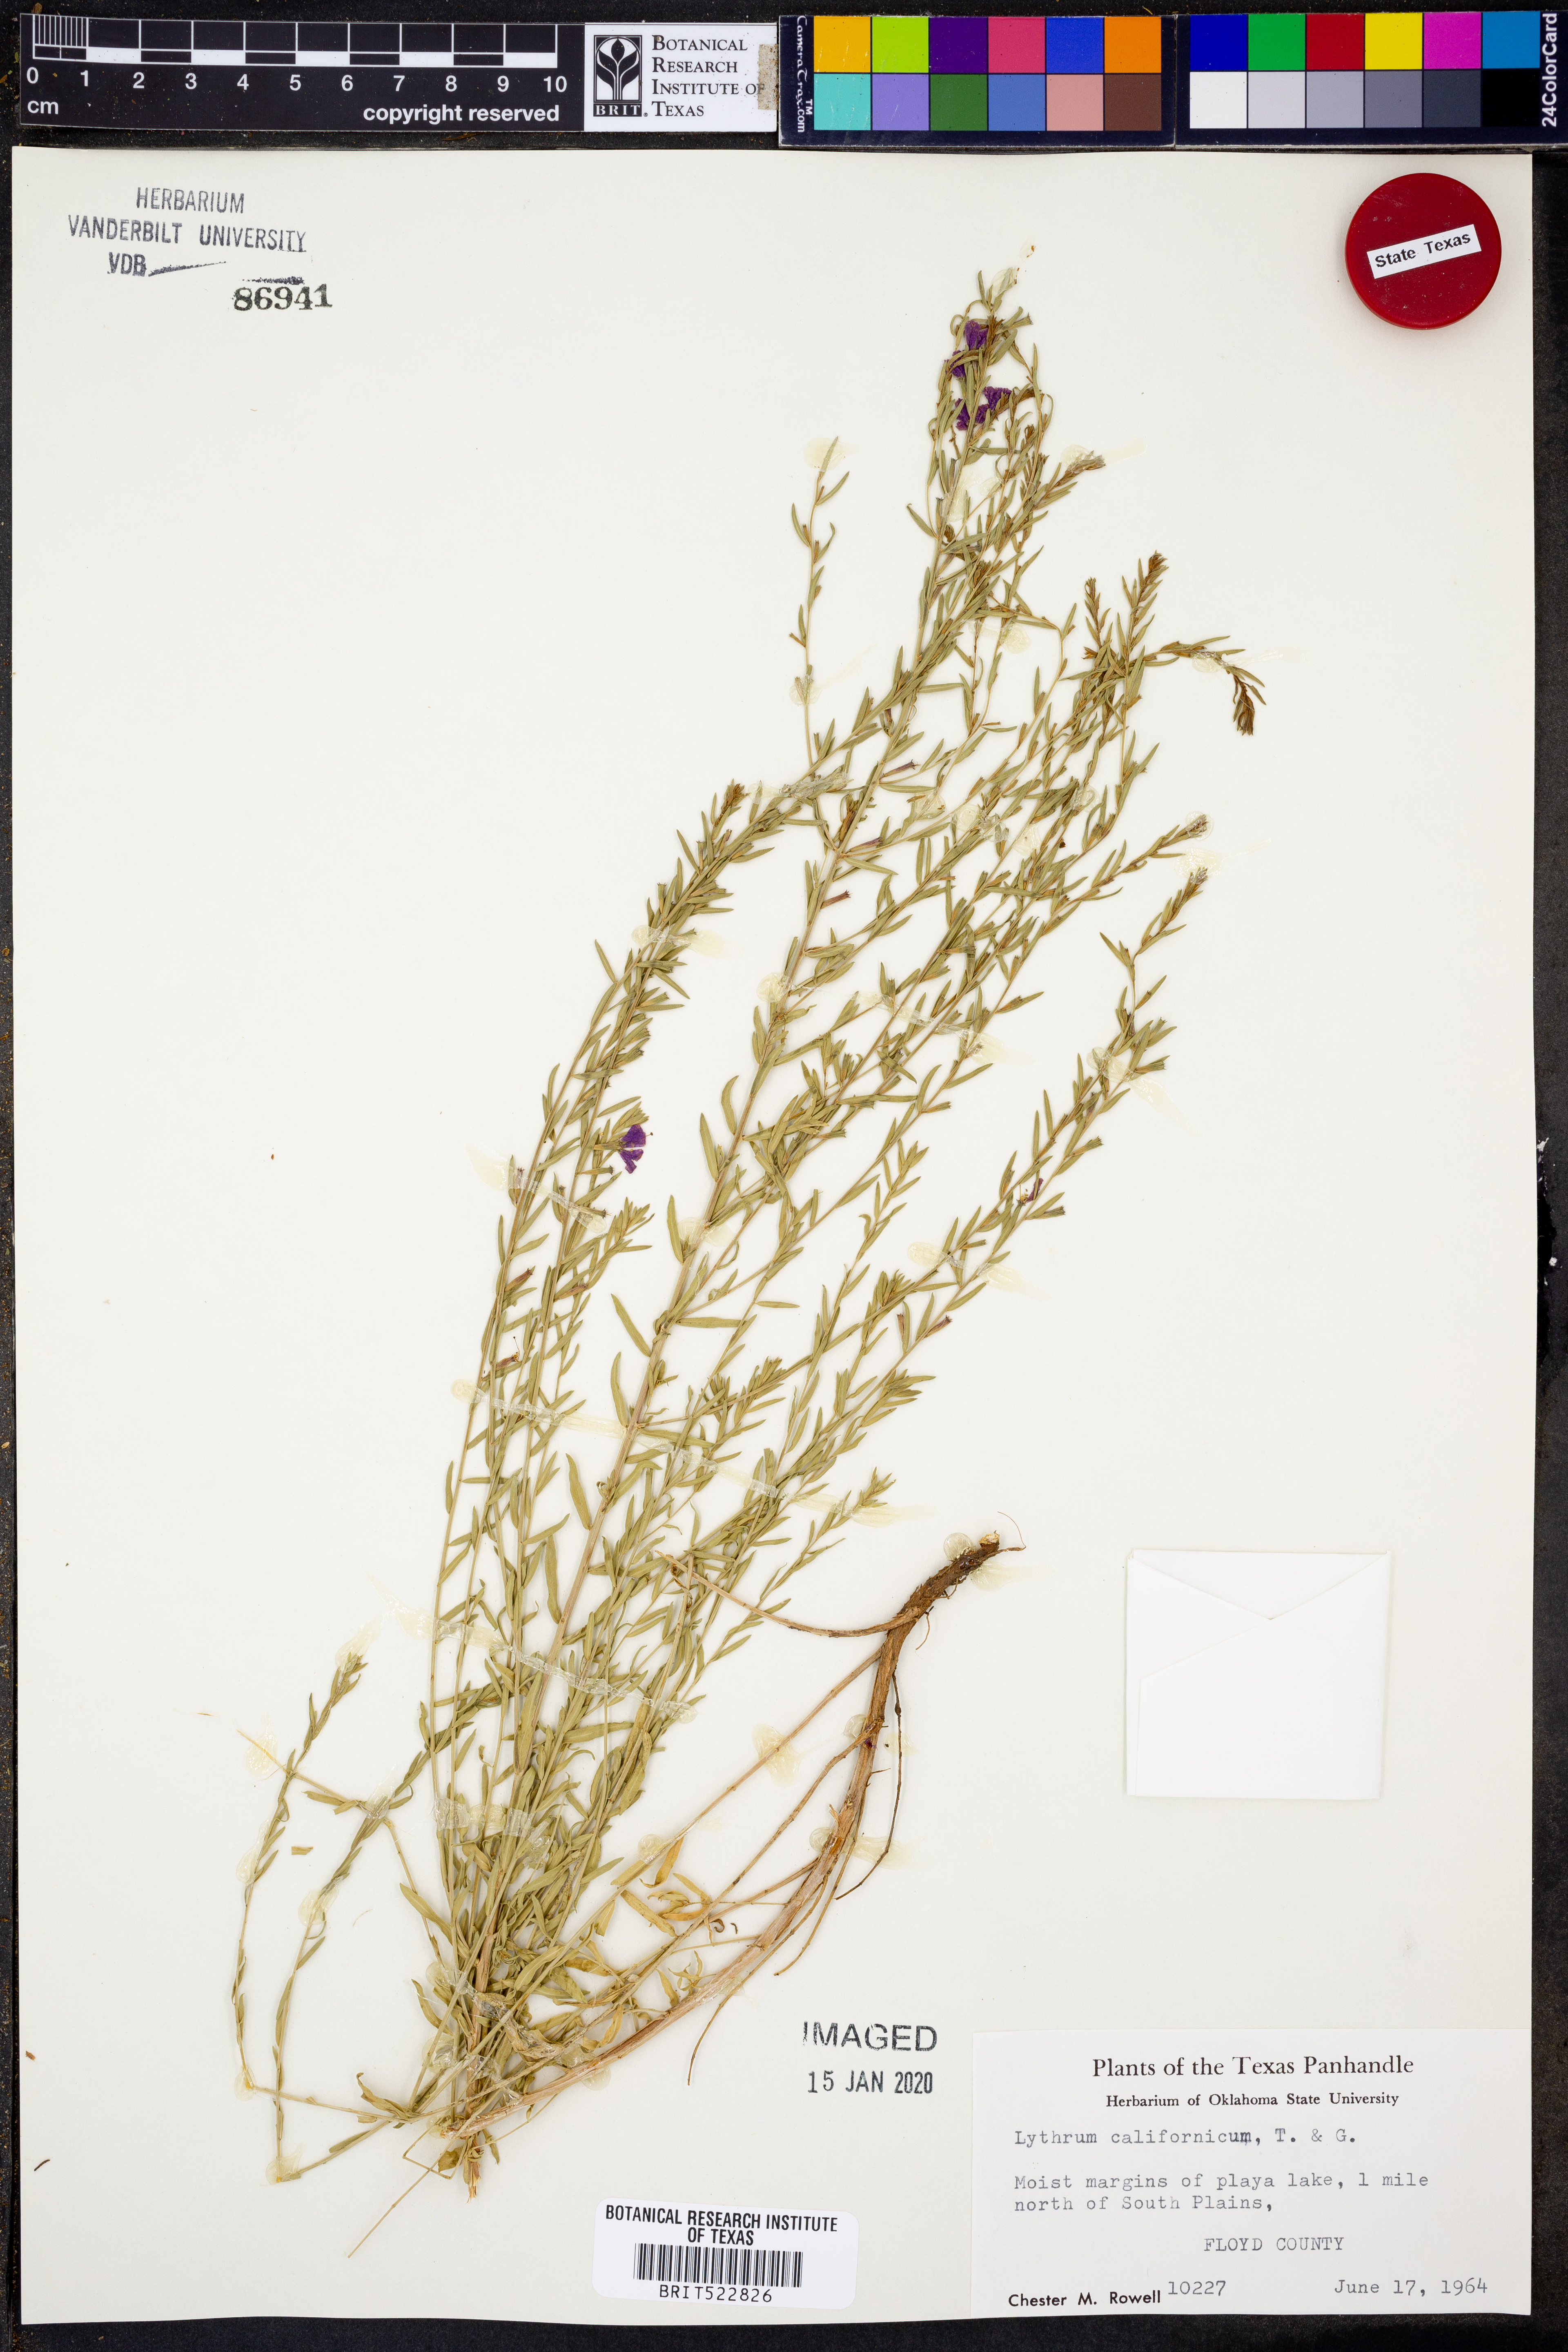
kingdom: Plantae
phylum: Tracheophyta
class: Magnoliopsida
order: Myrtales
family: Lythraceae
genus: Lythrum
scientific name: Lythrum californicum
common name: California loosestrife
